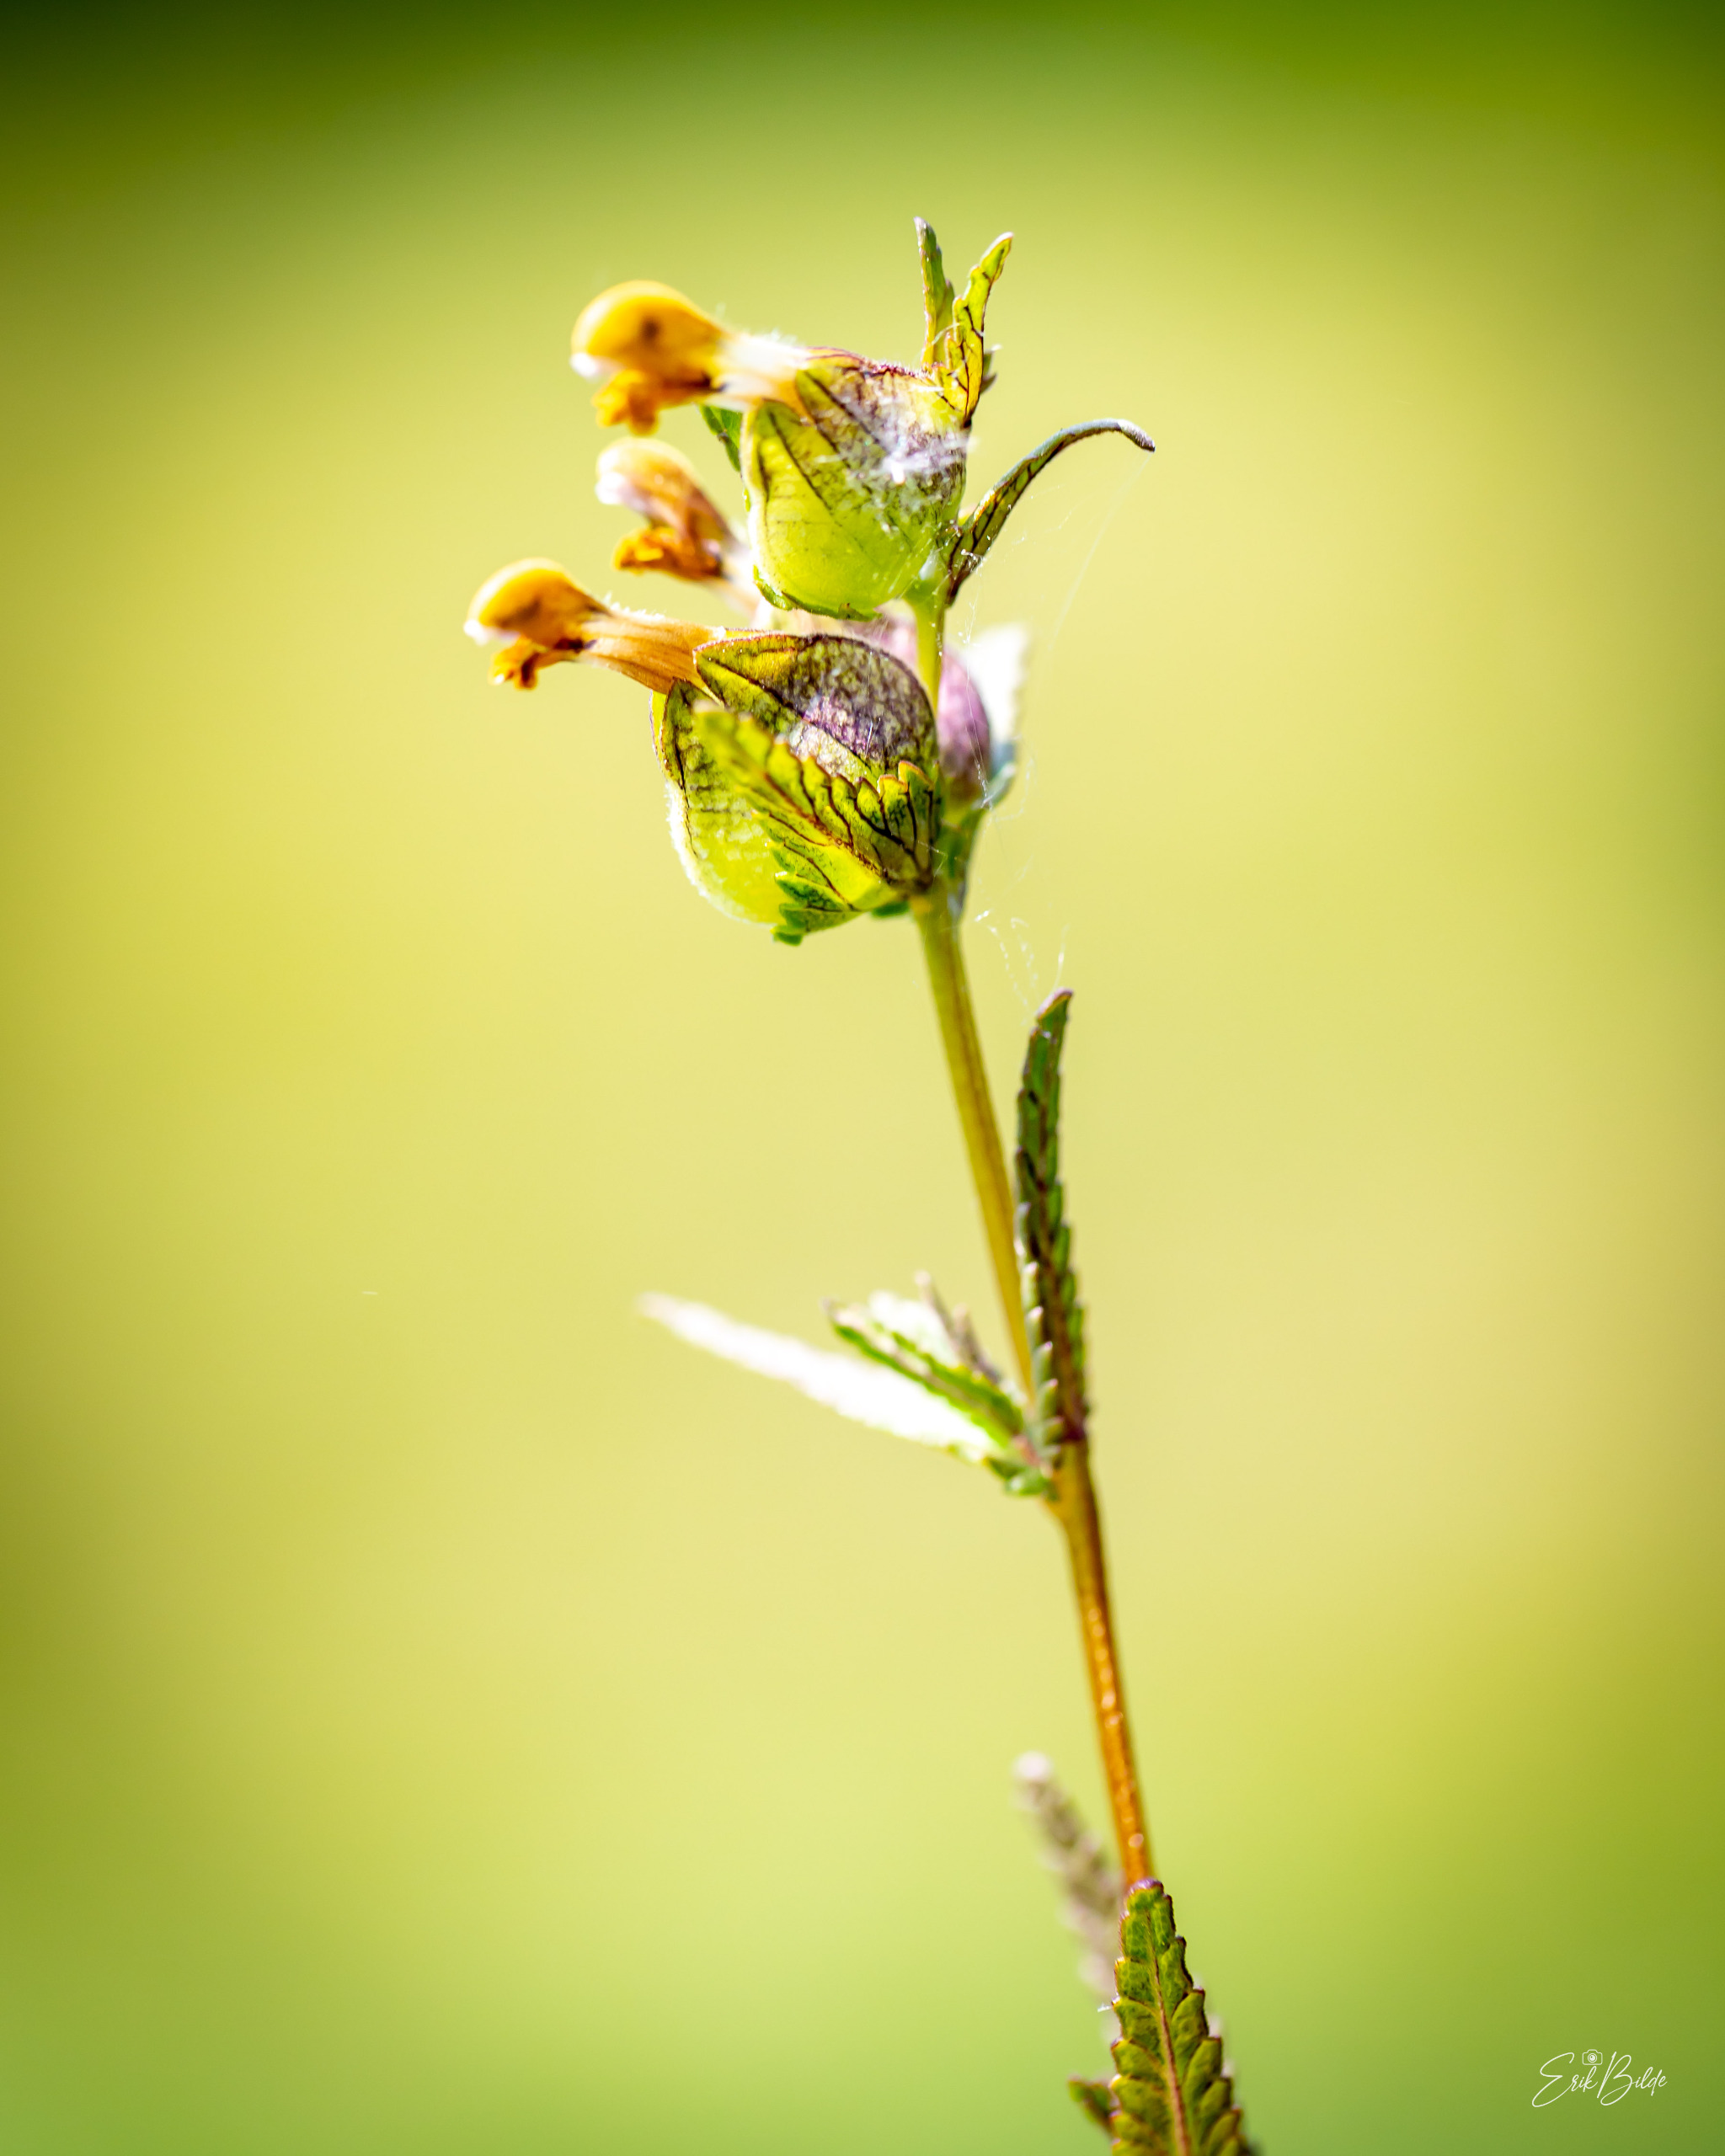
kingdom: Plantae
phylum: Tracheophyta
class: Magnoliopsida
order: Lamiales
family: Orobanchaceae
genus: Rhinanthus
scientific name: Rhinanthus minor
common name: Liden skjaller
